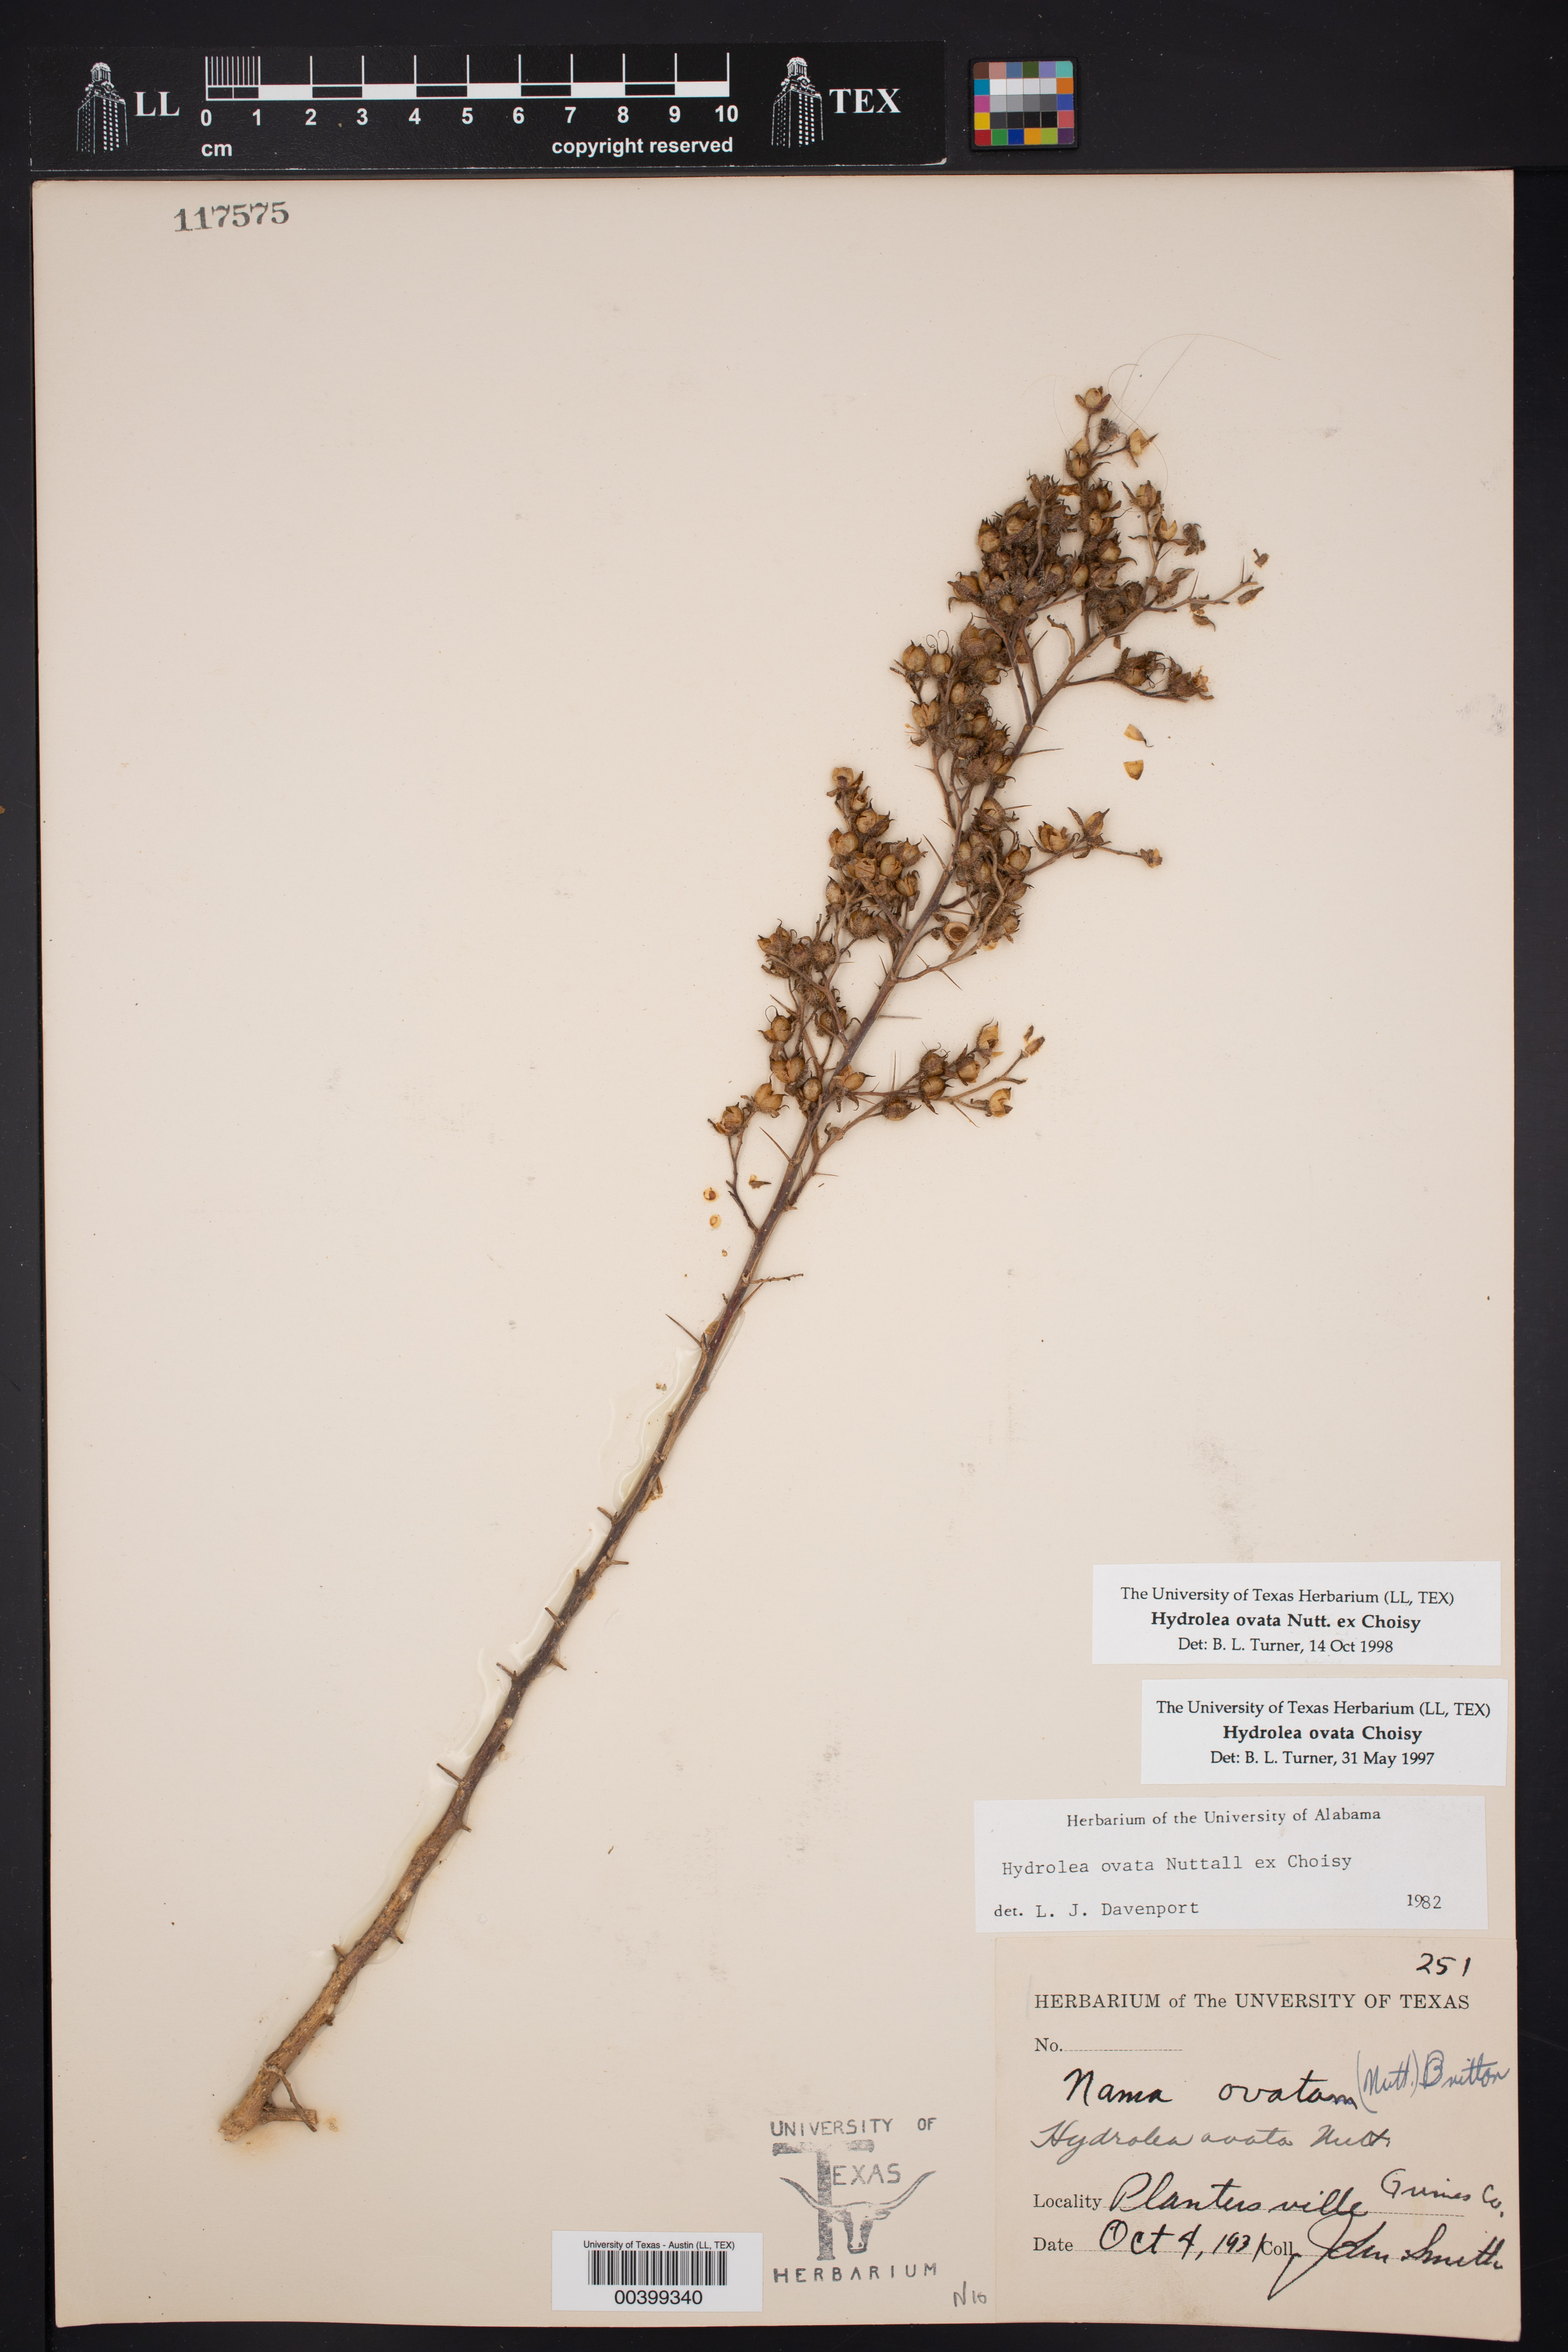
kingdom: Plantae
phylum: Tracheophyta
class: Magnoliopsida
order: Solanales
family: Hydroleaceae
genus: Hydrolea
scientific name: Hydrolea ovata
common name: Ovate false fiddleleaf
